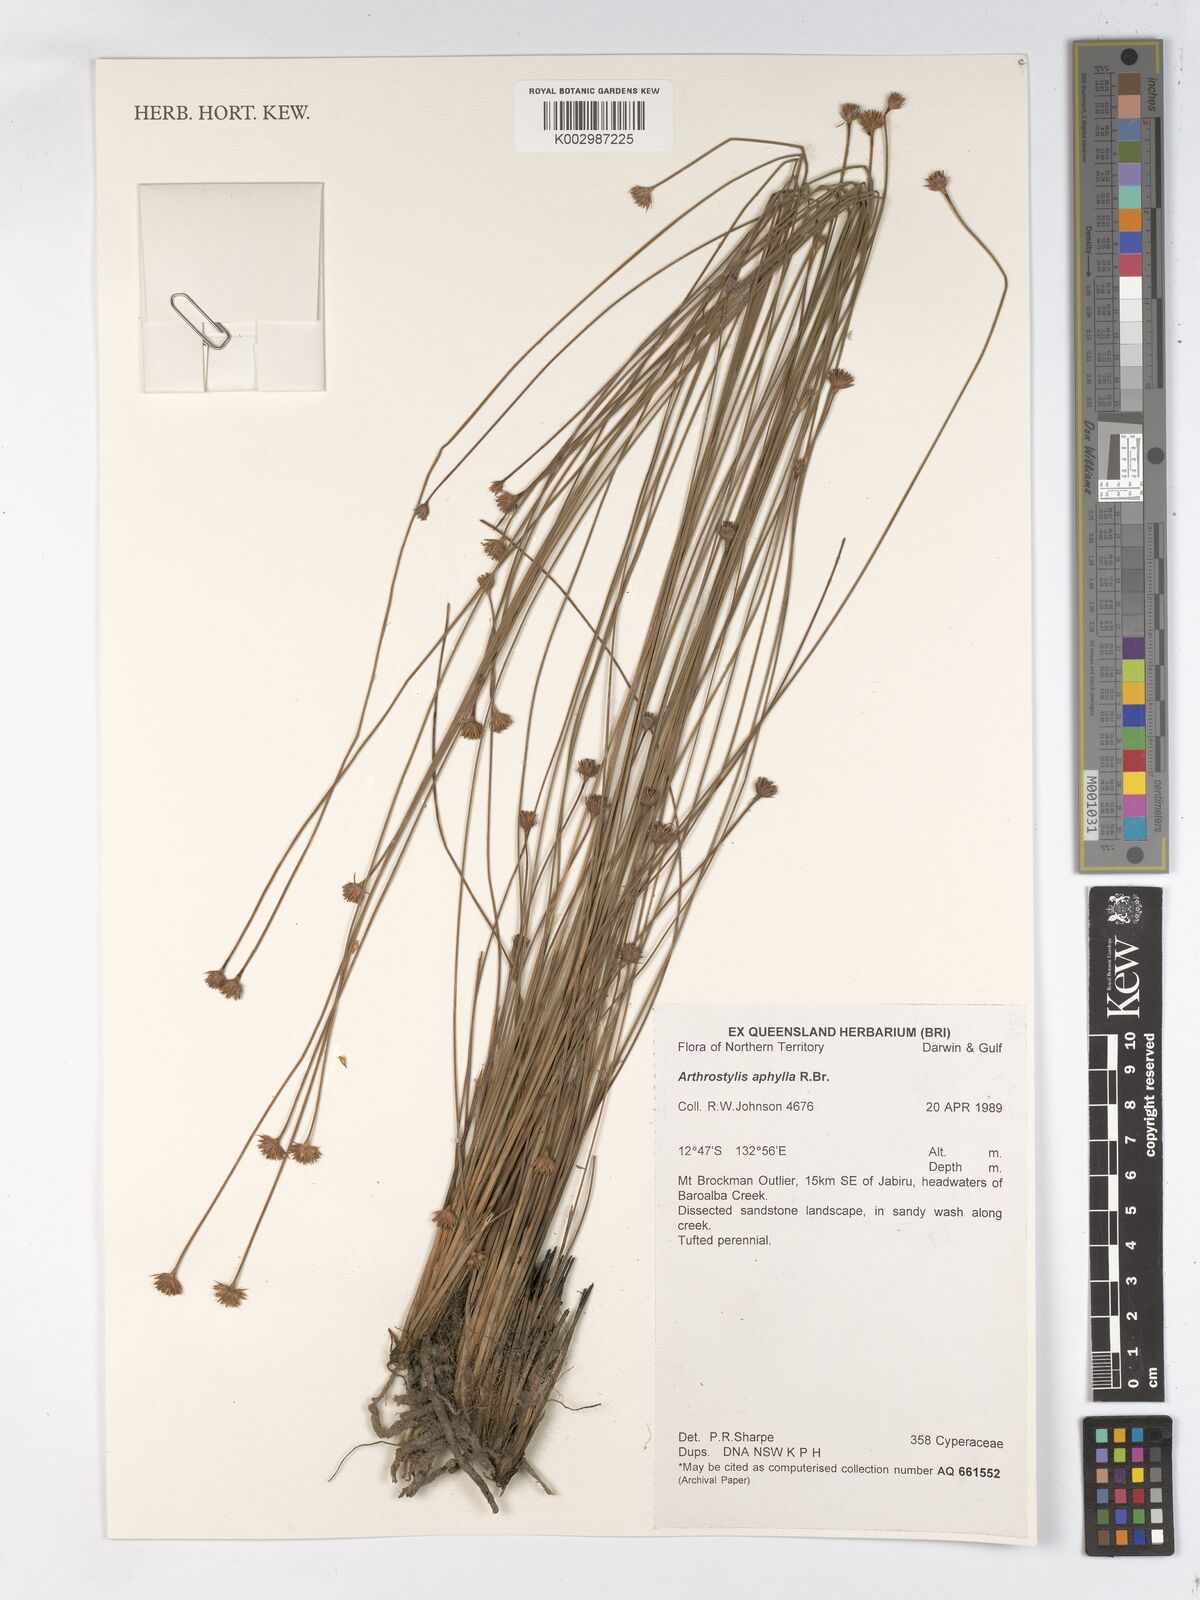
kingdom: Plantae
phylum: Tracheophyta
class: Liliopsida
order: Poales
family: Cyperaceae
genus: Arthrostylis
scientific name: Arthrostylis aphylla
